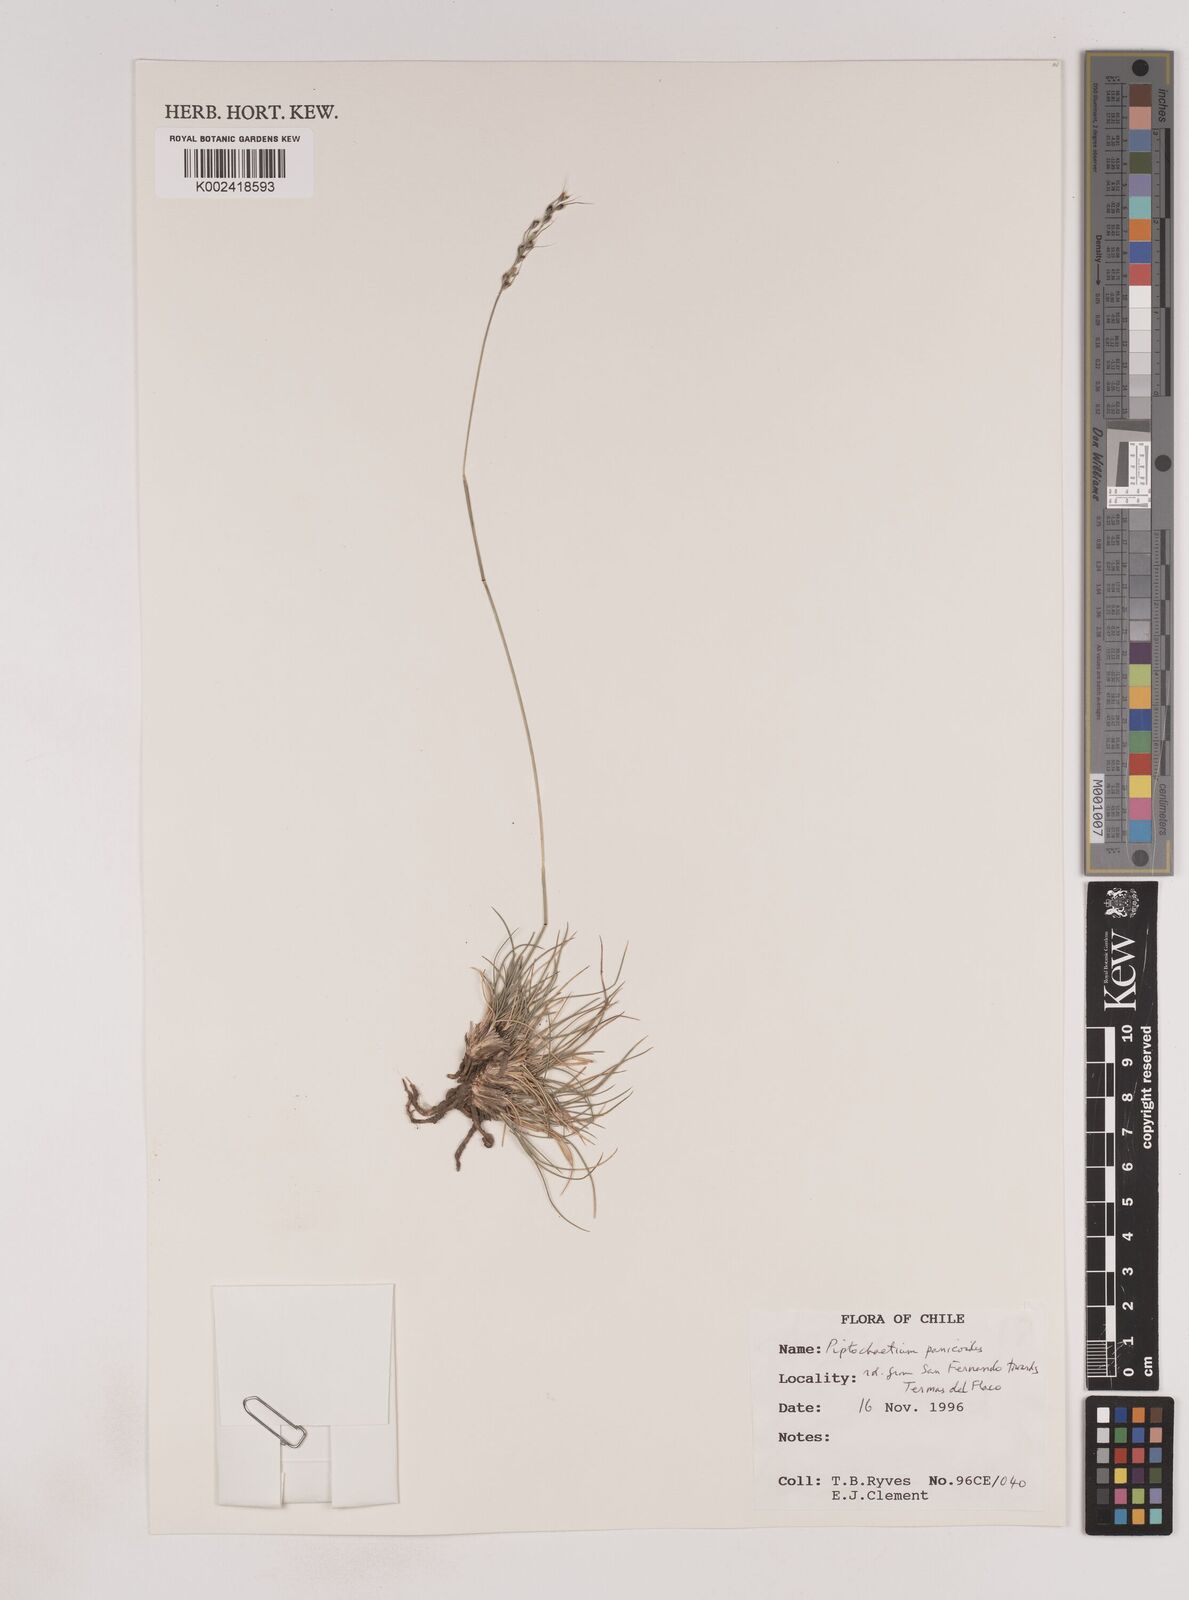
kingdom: Plantae
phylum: Tracheophyta
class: Liliopsida
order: Poales
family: Poaceae
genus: Piptochaetium
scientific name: Piptochaetium panicoides
